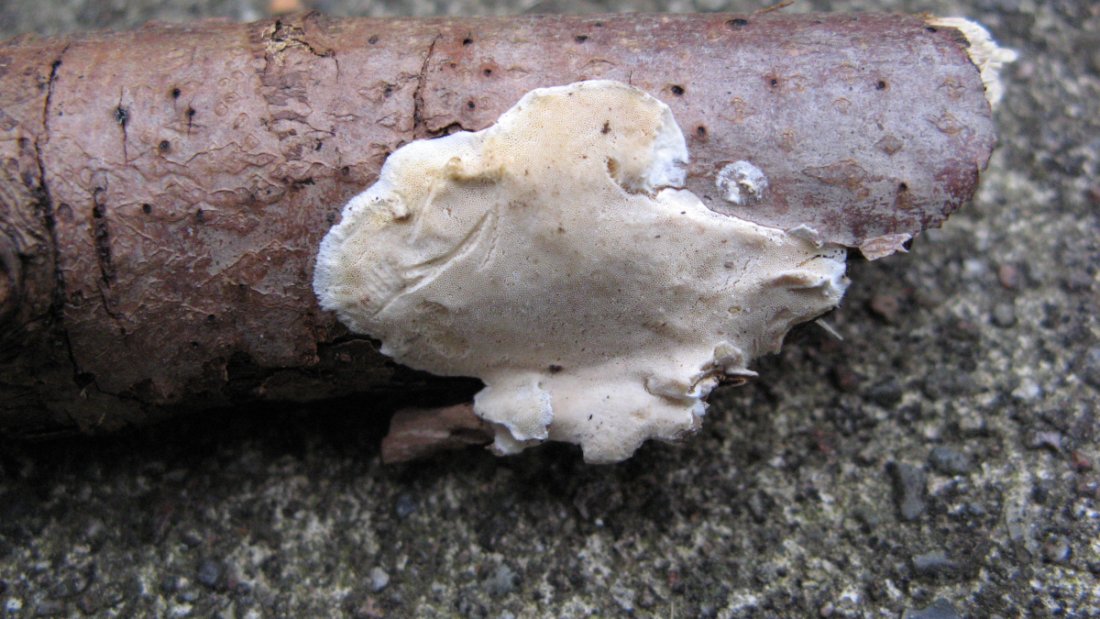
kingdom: Fungi
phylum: Basidiomycota
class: Agaricomycetes
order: Polyporales
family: Incrustoporiaceae
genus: Skeletocutis
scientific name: Skeletocutis nemoralis
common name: stor krystalporesvamp
